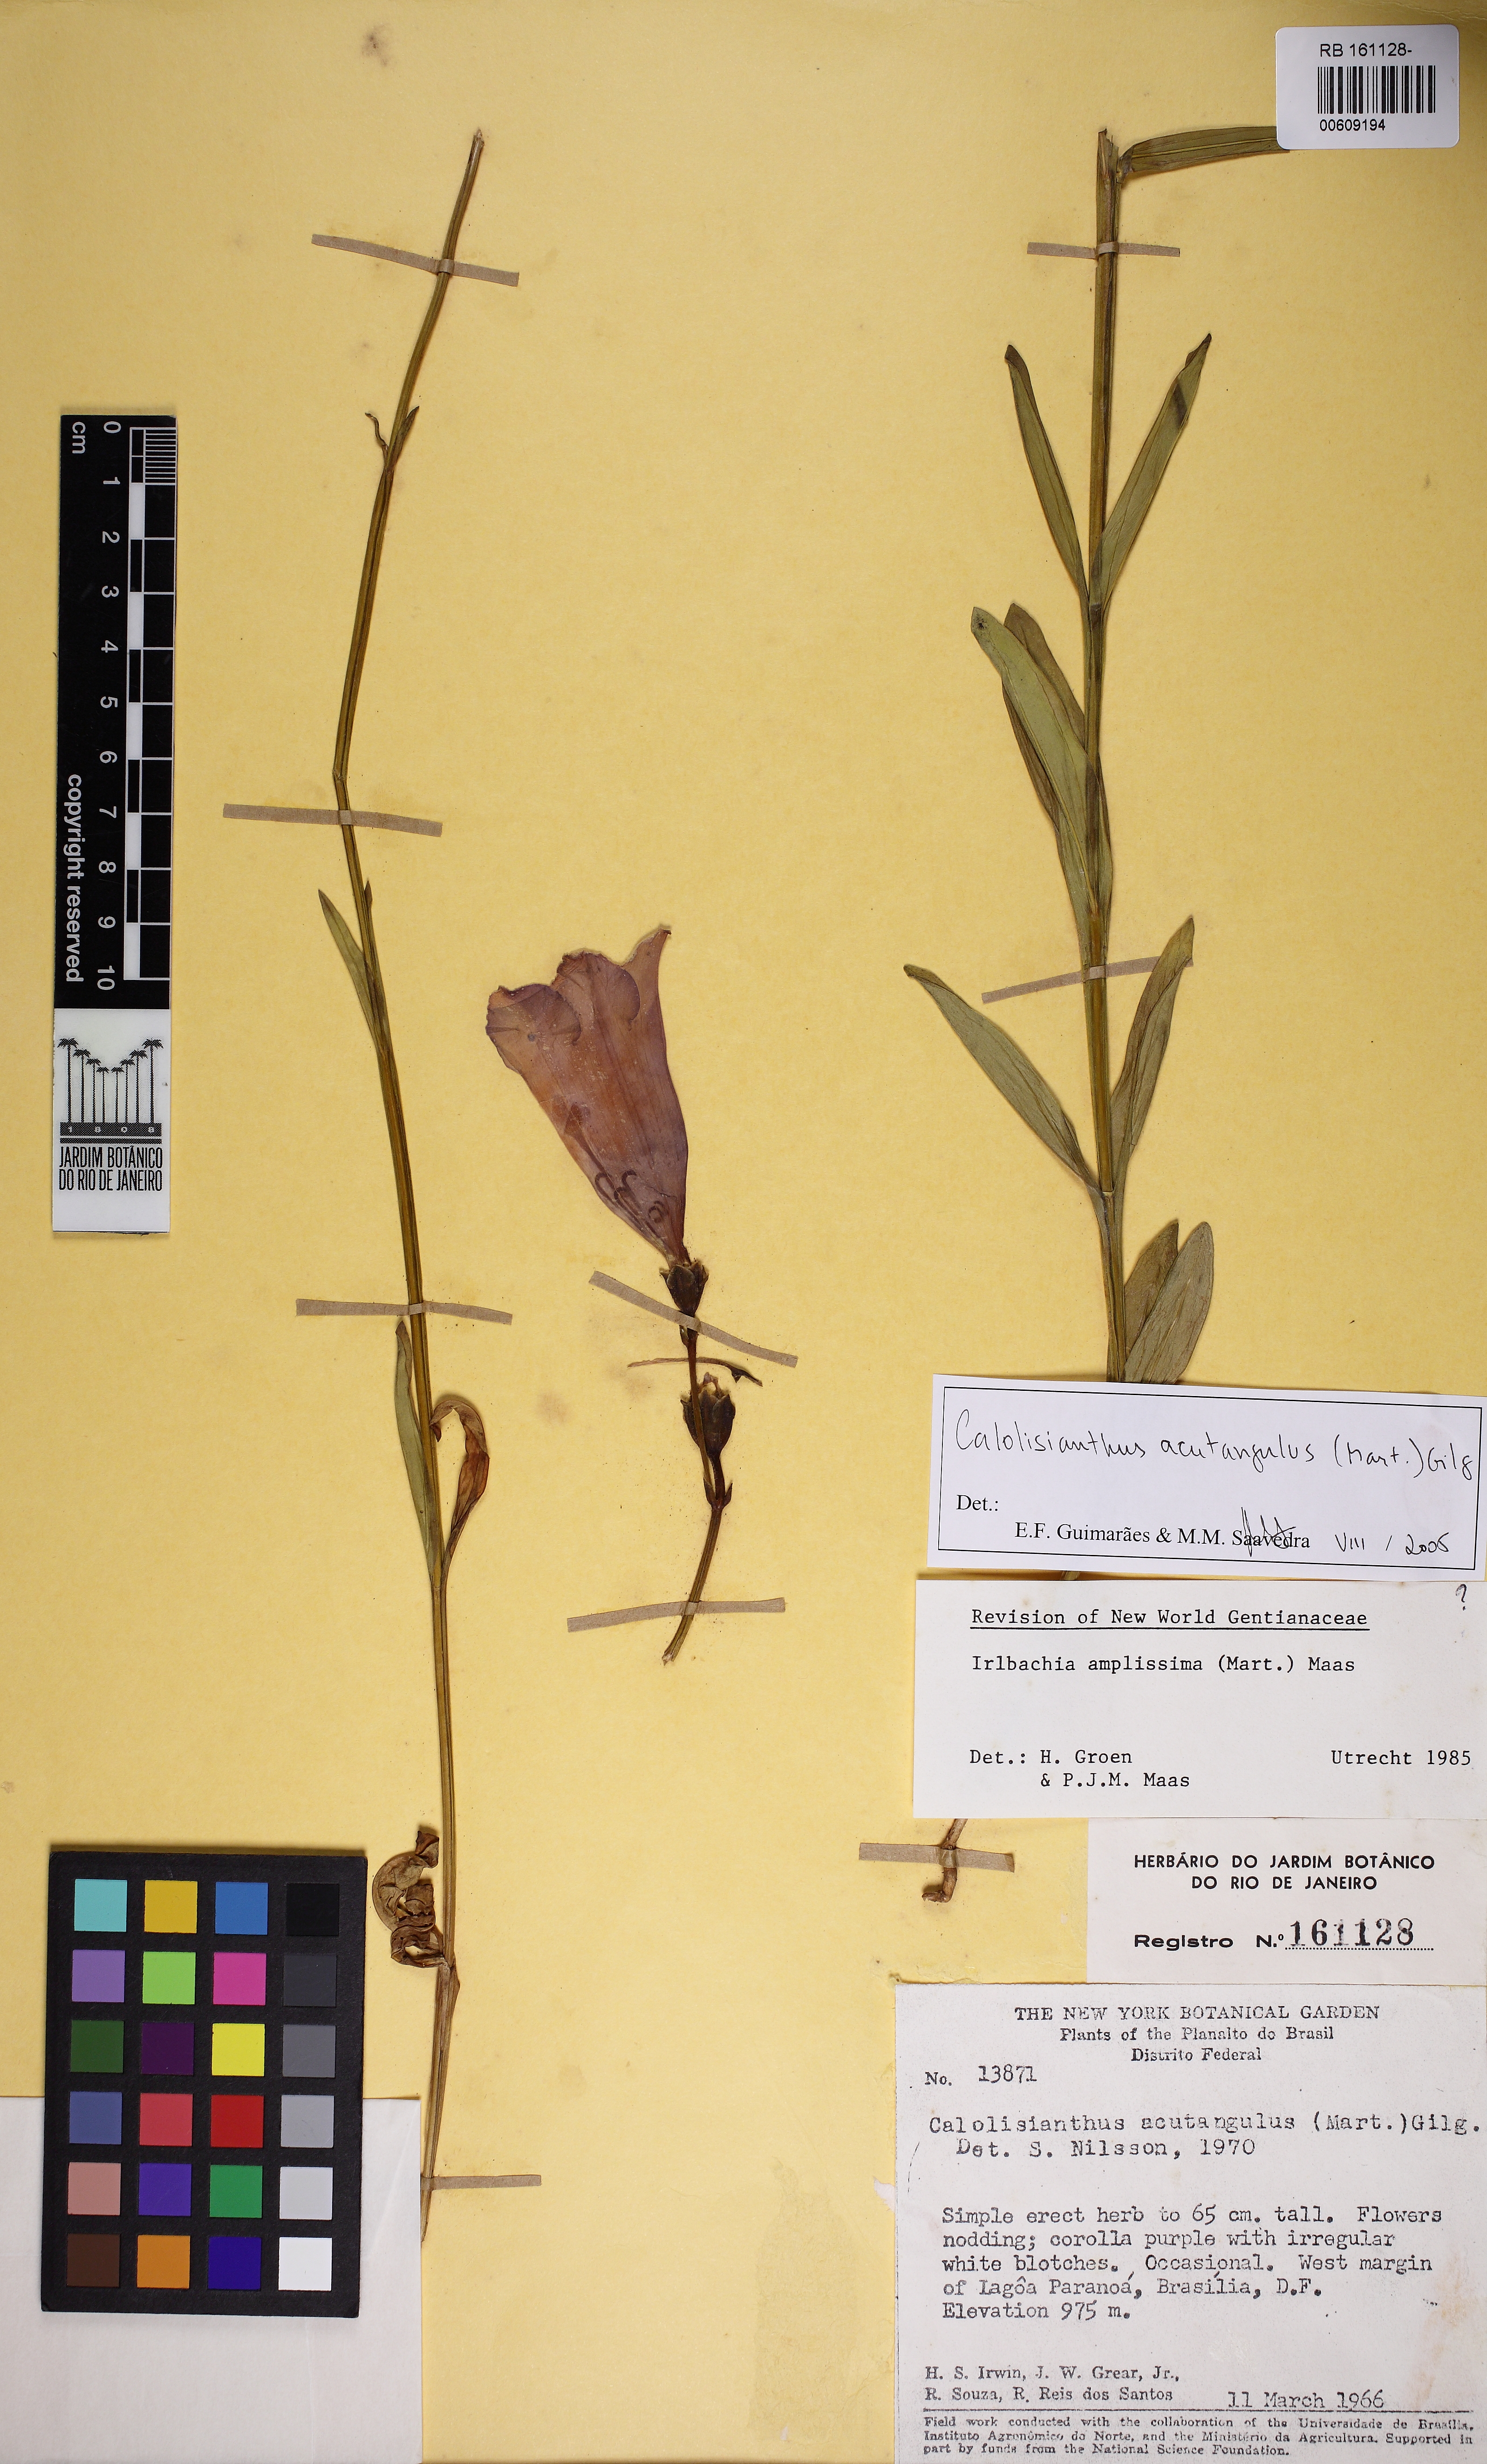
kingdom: Plantae
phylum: Tracheophyta
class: Magnoliopsida
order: Gentianales
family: Gentianaceae
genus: Lisianthius
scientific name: Lisianthius tetragonoalatus
